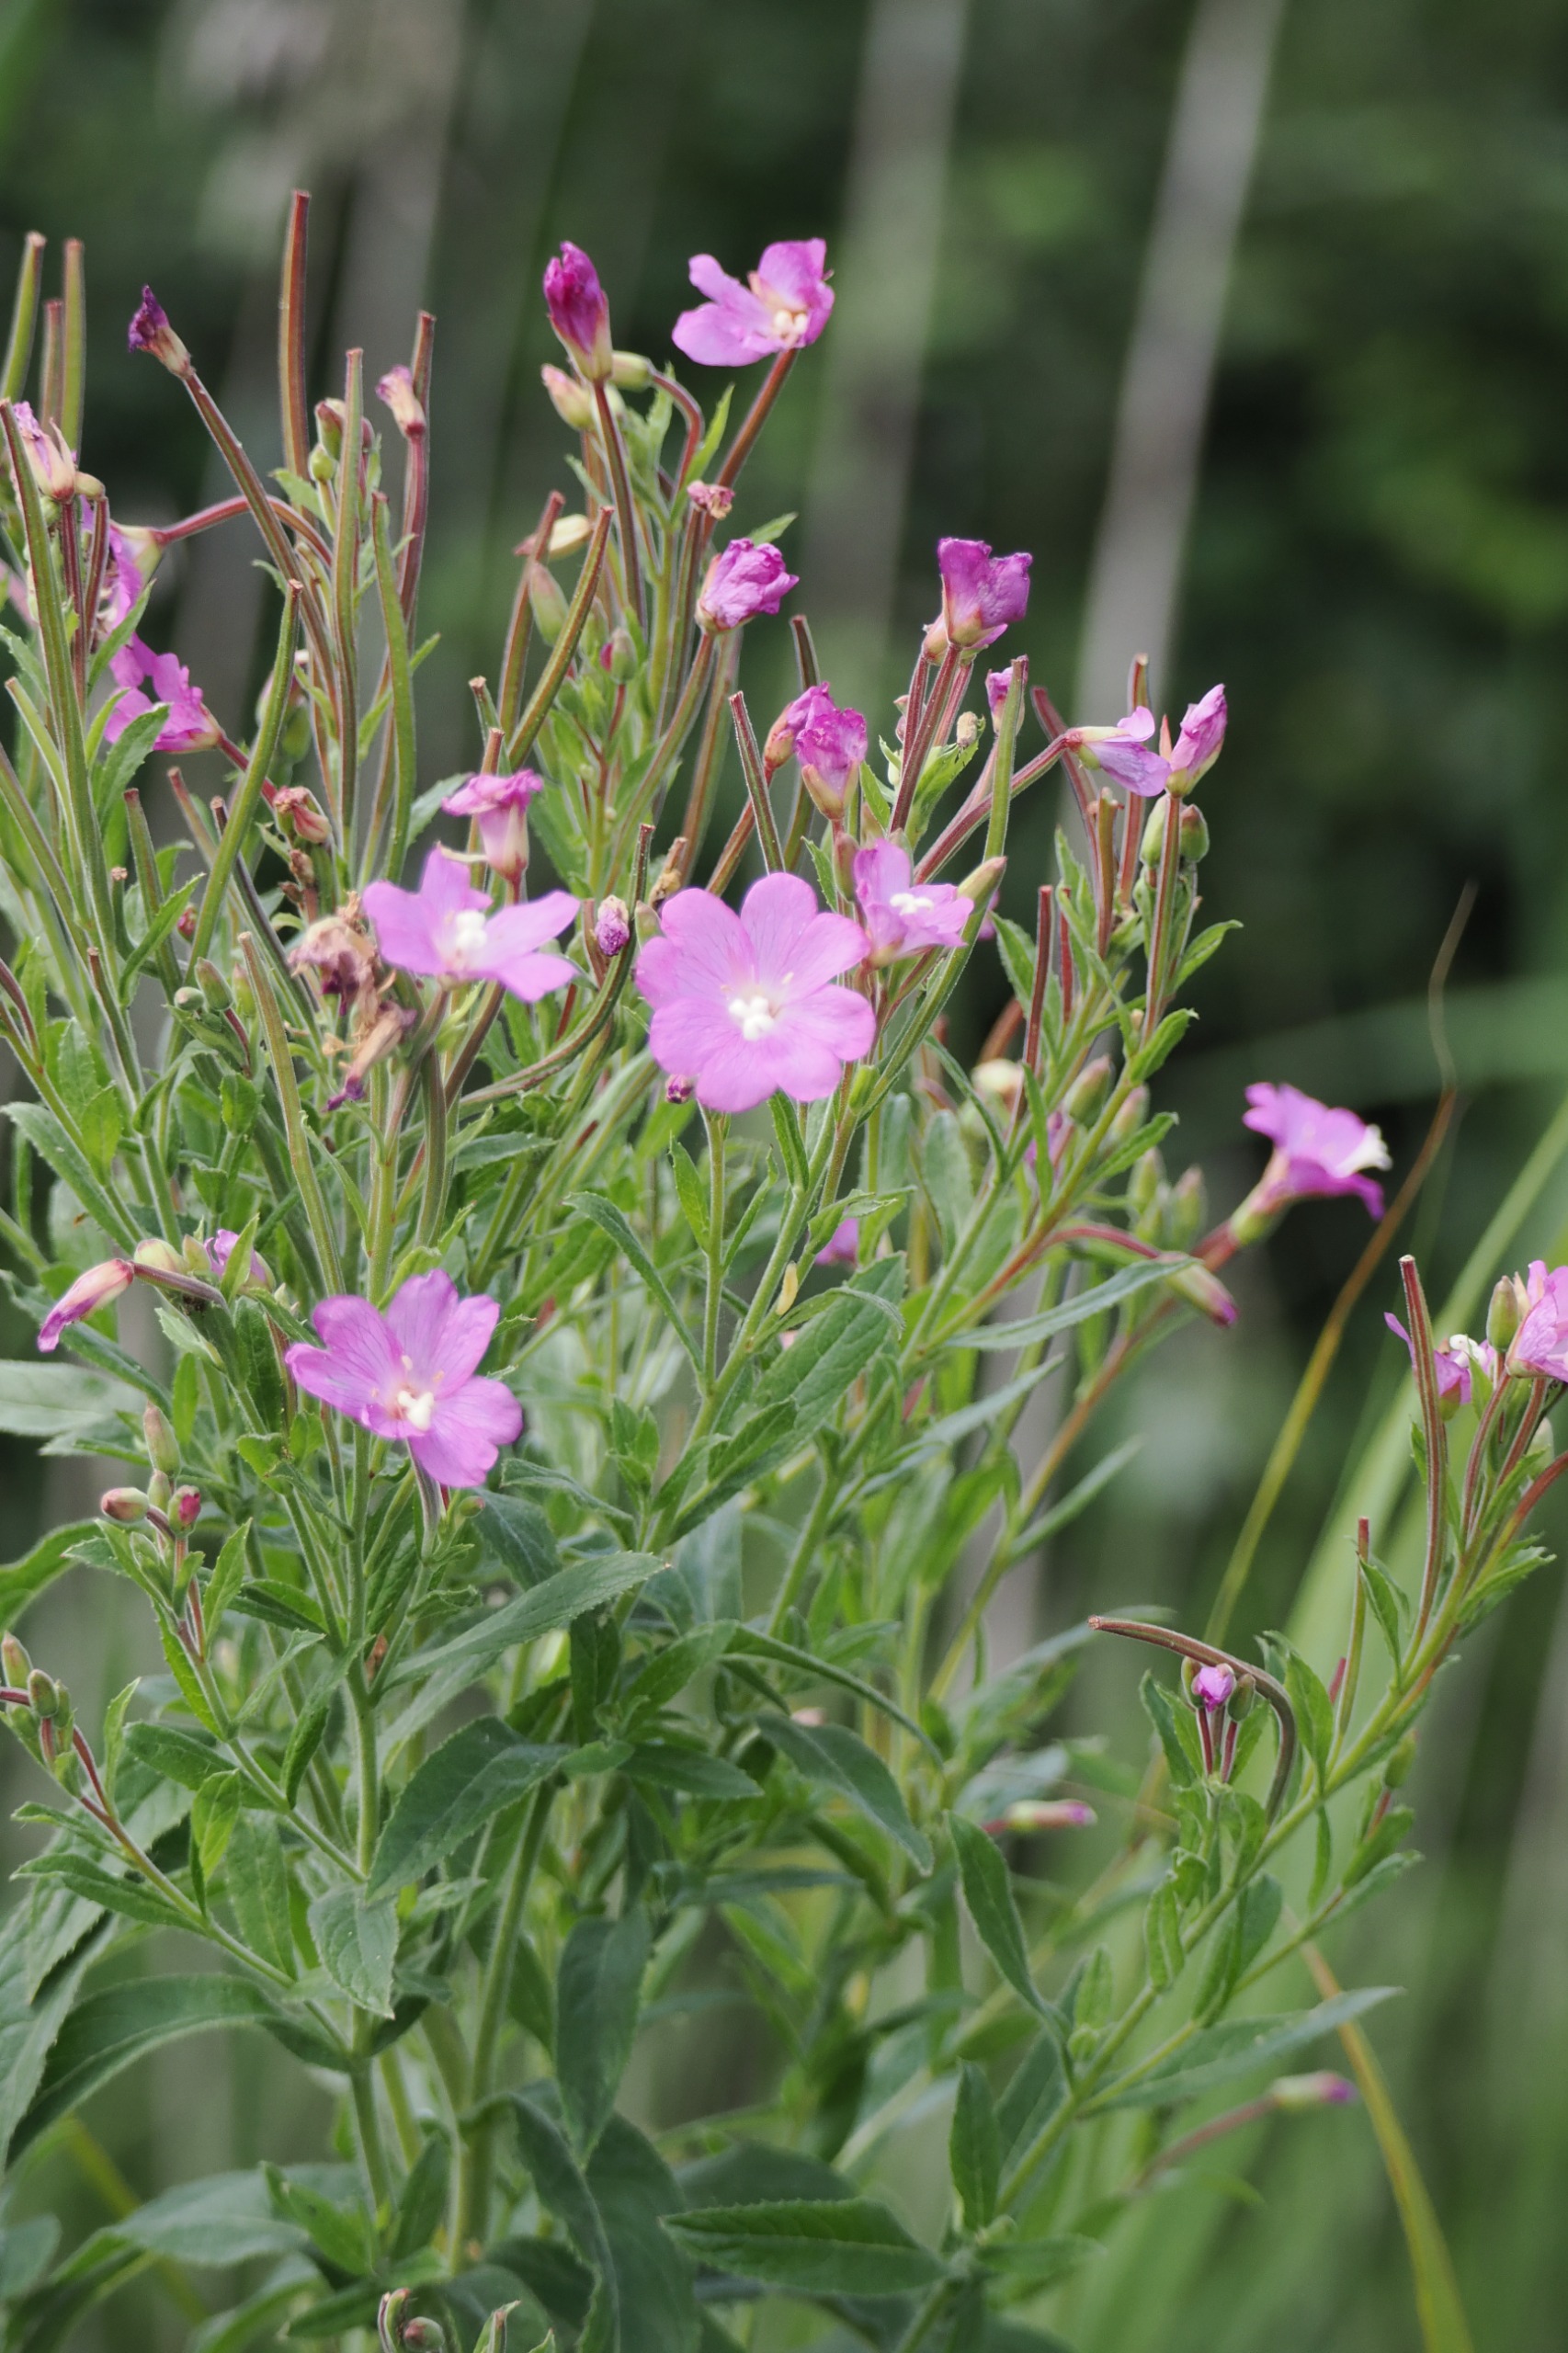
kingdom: Plantae
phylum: Tracheophyta
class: Magnoliopsida
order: Myrtales
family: Onagraceae
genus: Epilobium
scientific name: Epilobium hirsutum
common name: Lådden dueurt
